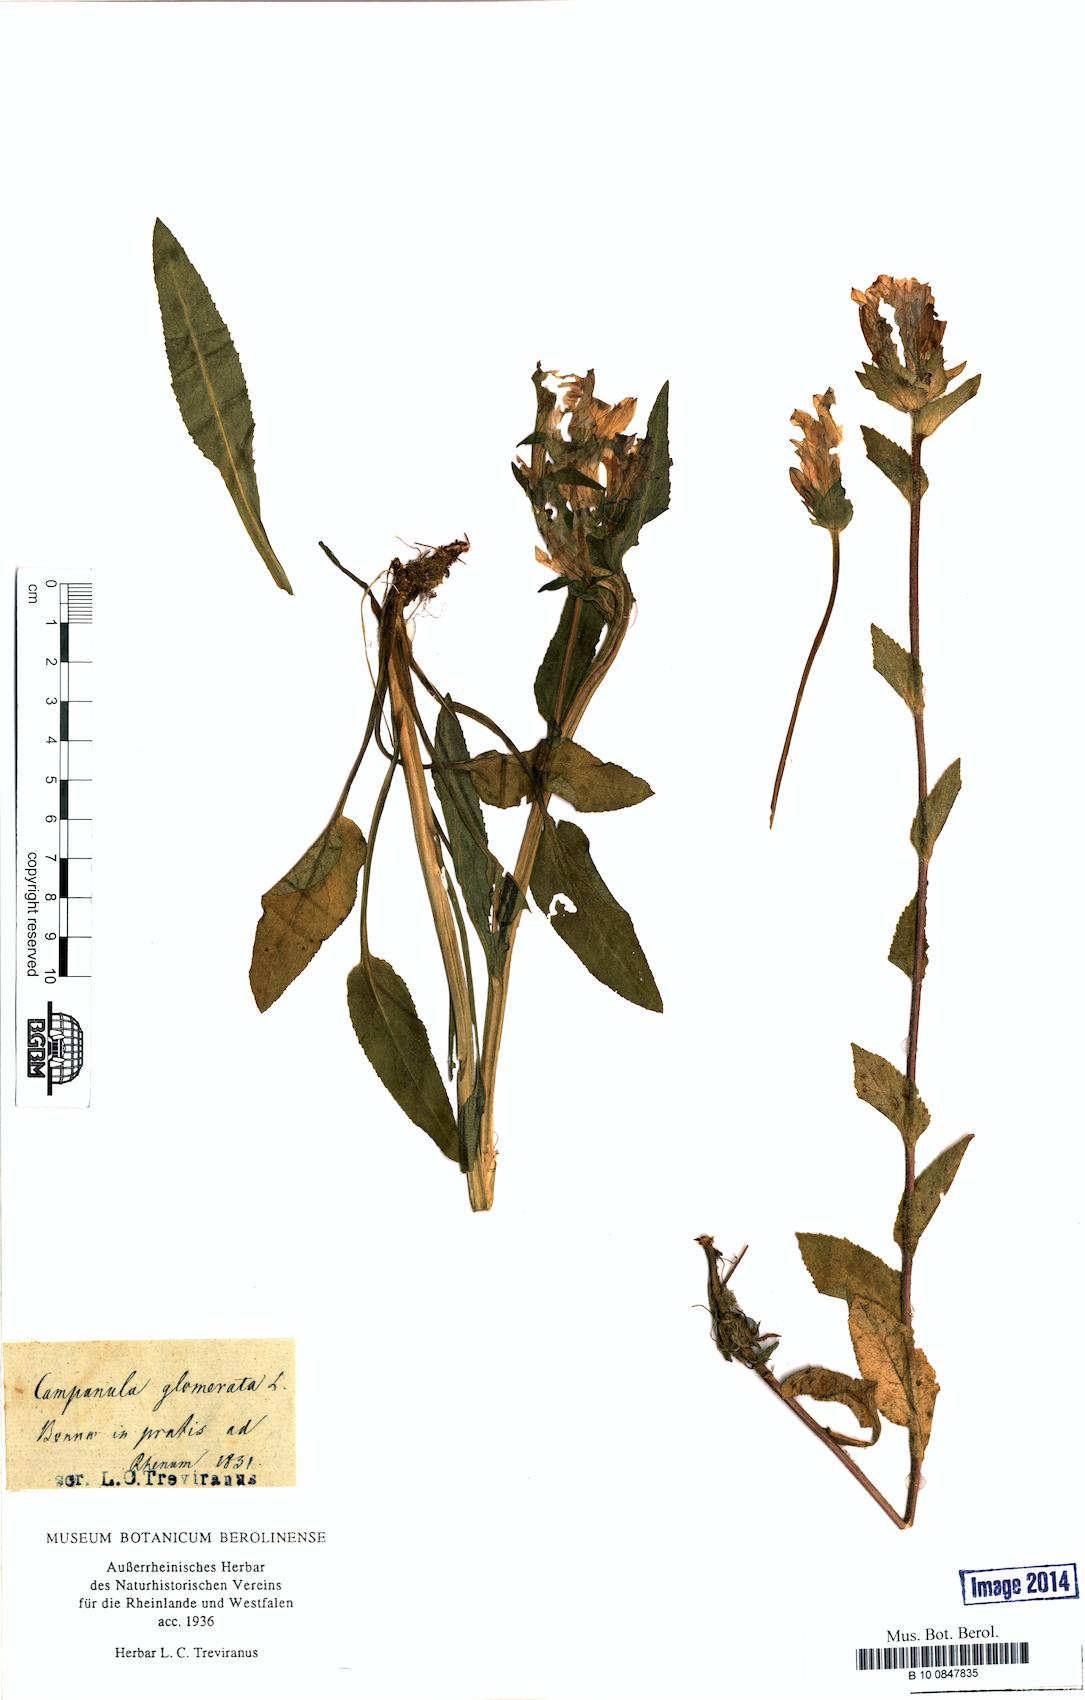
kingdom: Plantae
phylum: Tracheophyta
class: Magnoliopsida
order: Asterales
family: Campanulaceae
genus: Campanula
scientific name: Campanula glomerata
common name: Clustered bellflower
